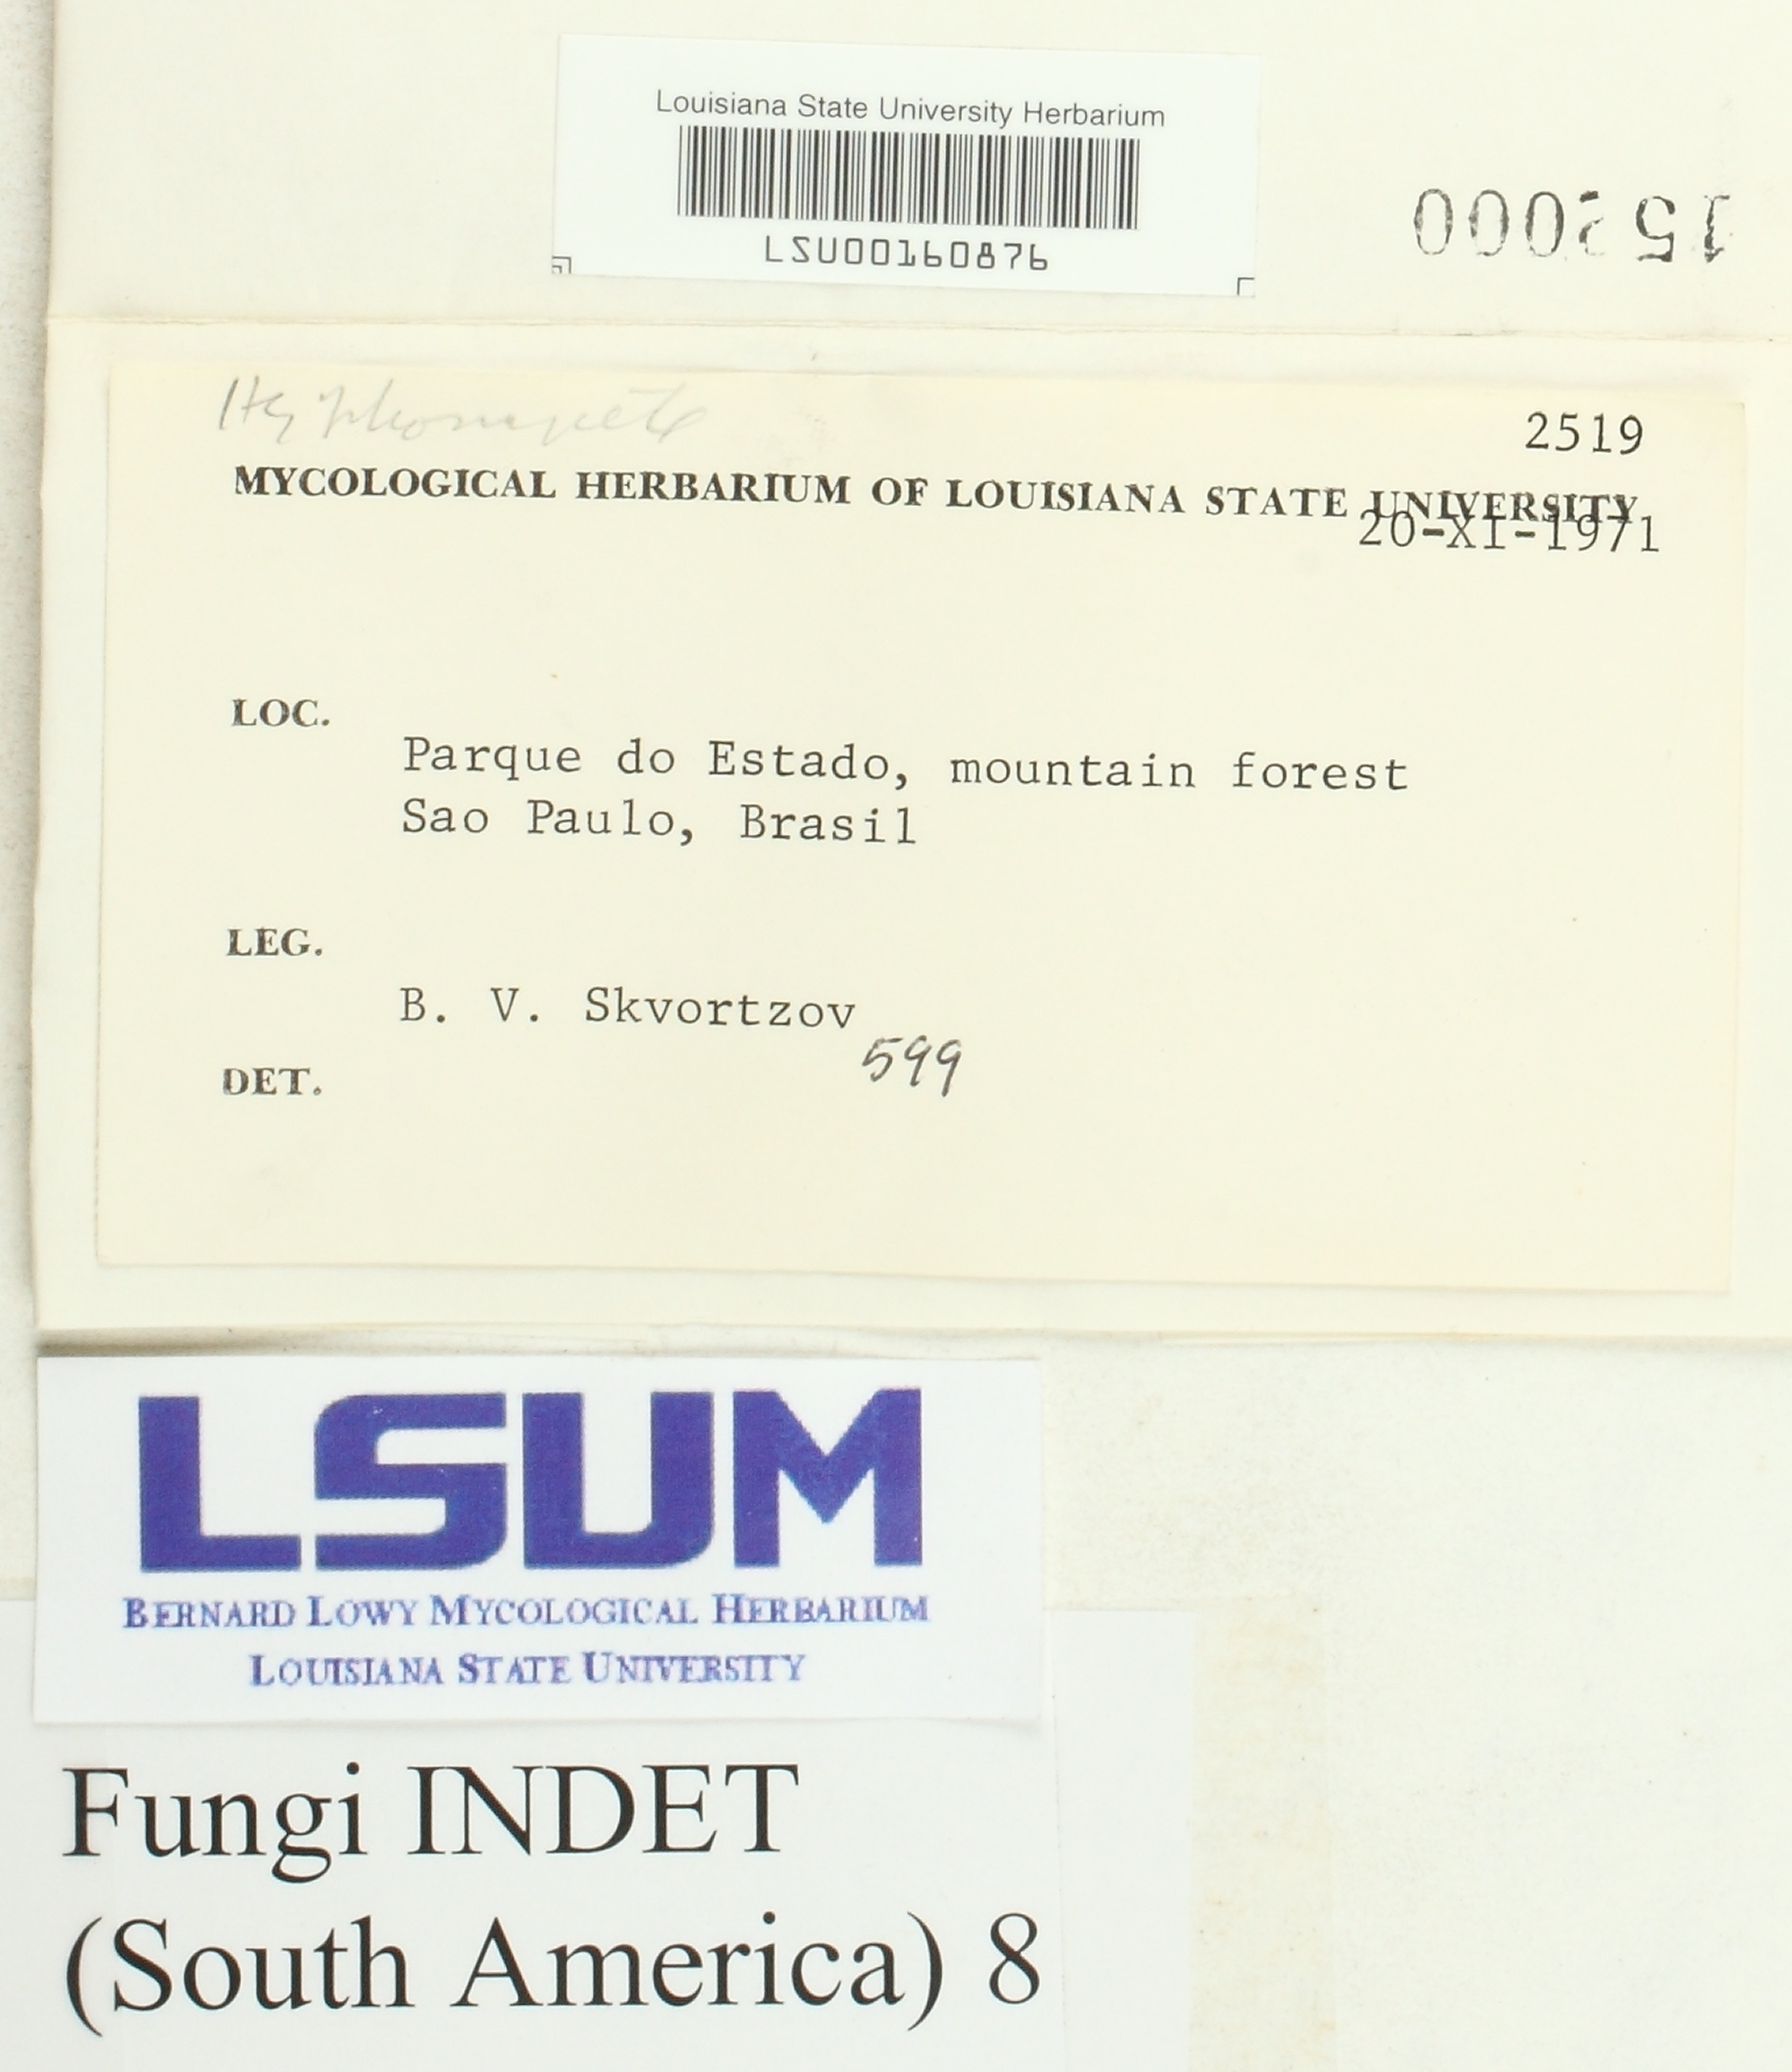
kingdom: Fungi
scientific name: Fungi
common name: Fungi
